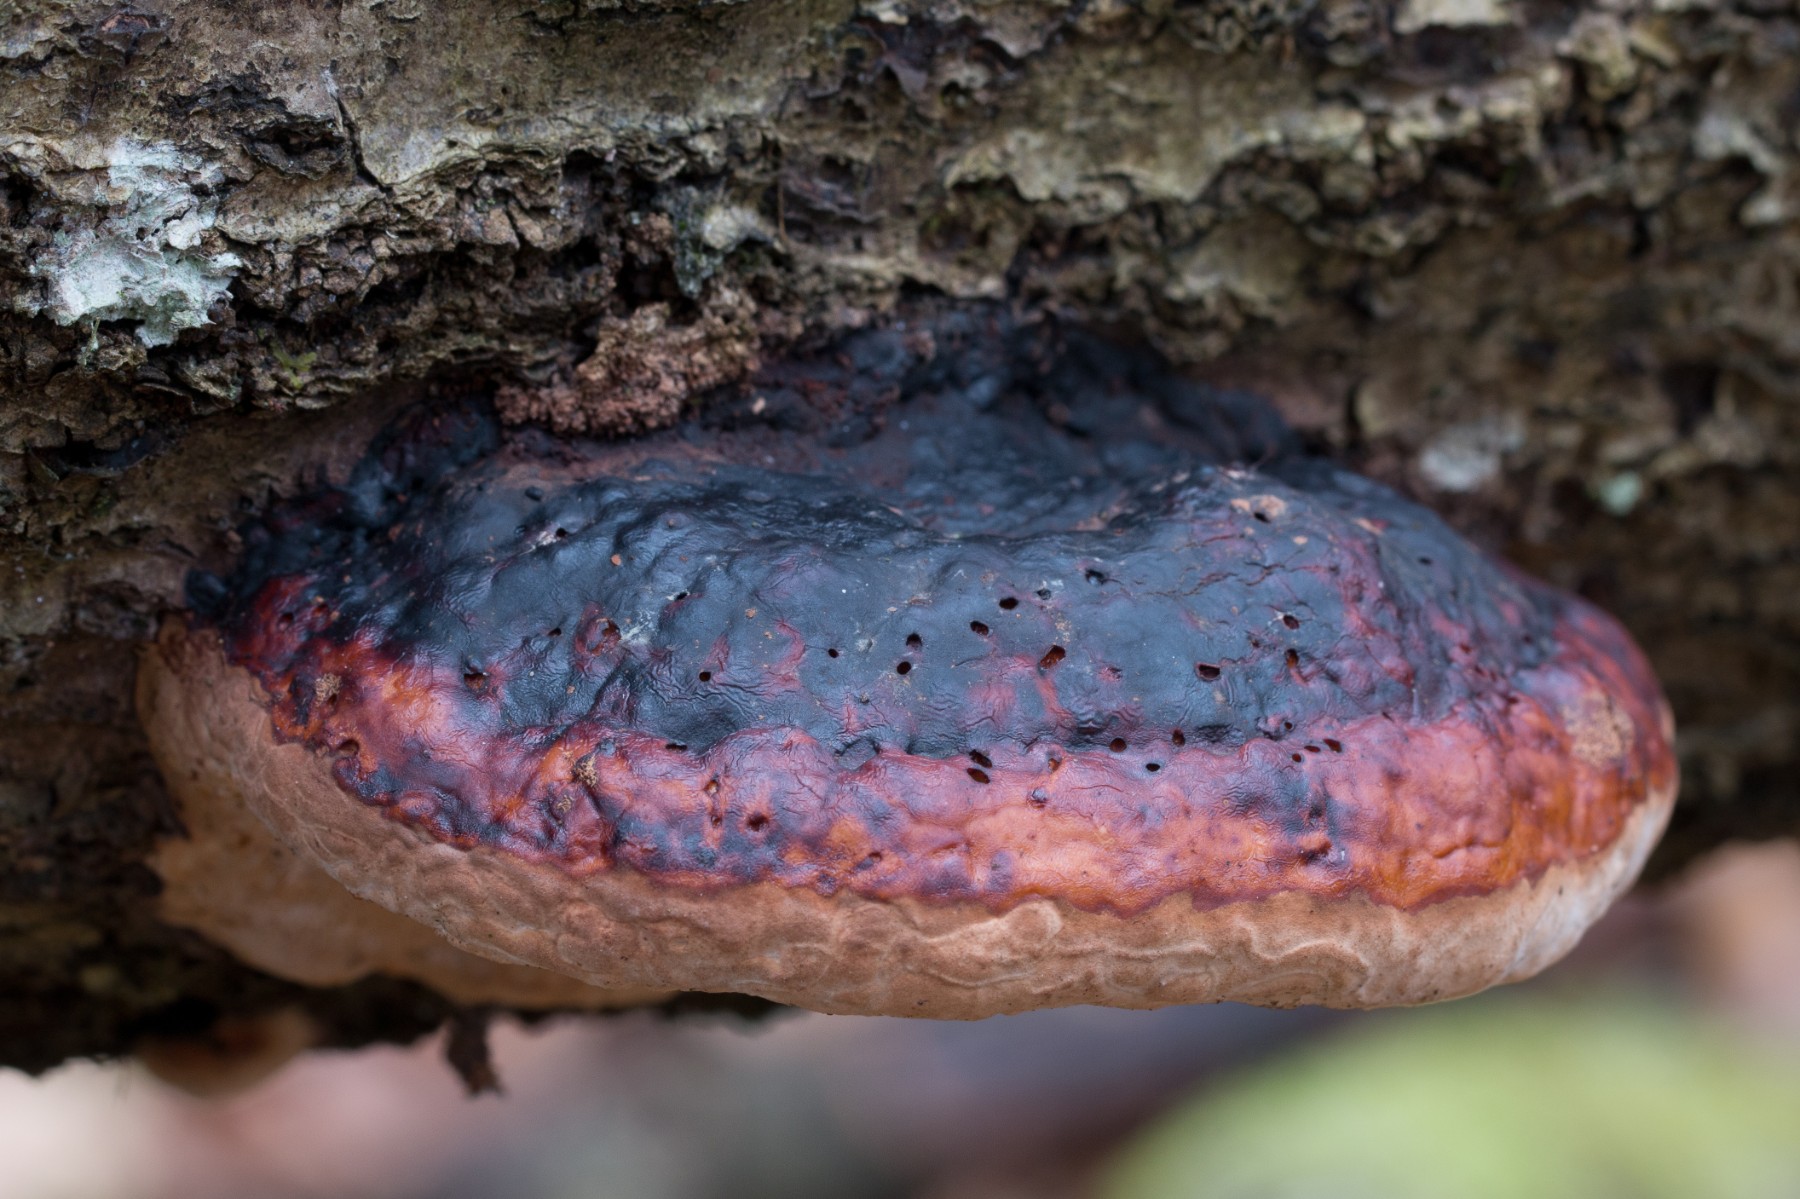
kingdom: Fungi
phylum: Basidiomycota
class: Agaricomycetes
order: Polyporales
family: Fomitopsidaceae
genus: Fomitopsis
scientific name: Fomitopsis pinicola
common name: randbæltet hovporesvamp
